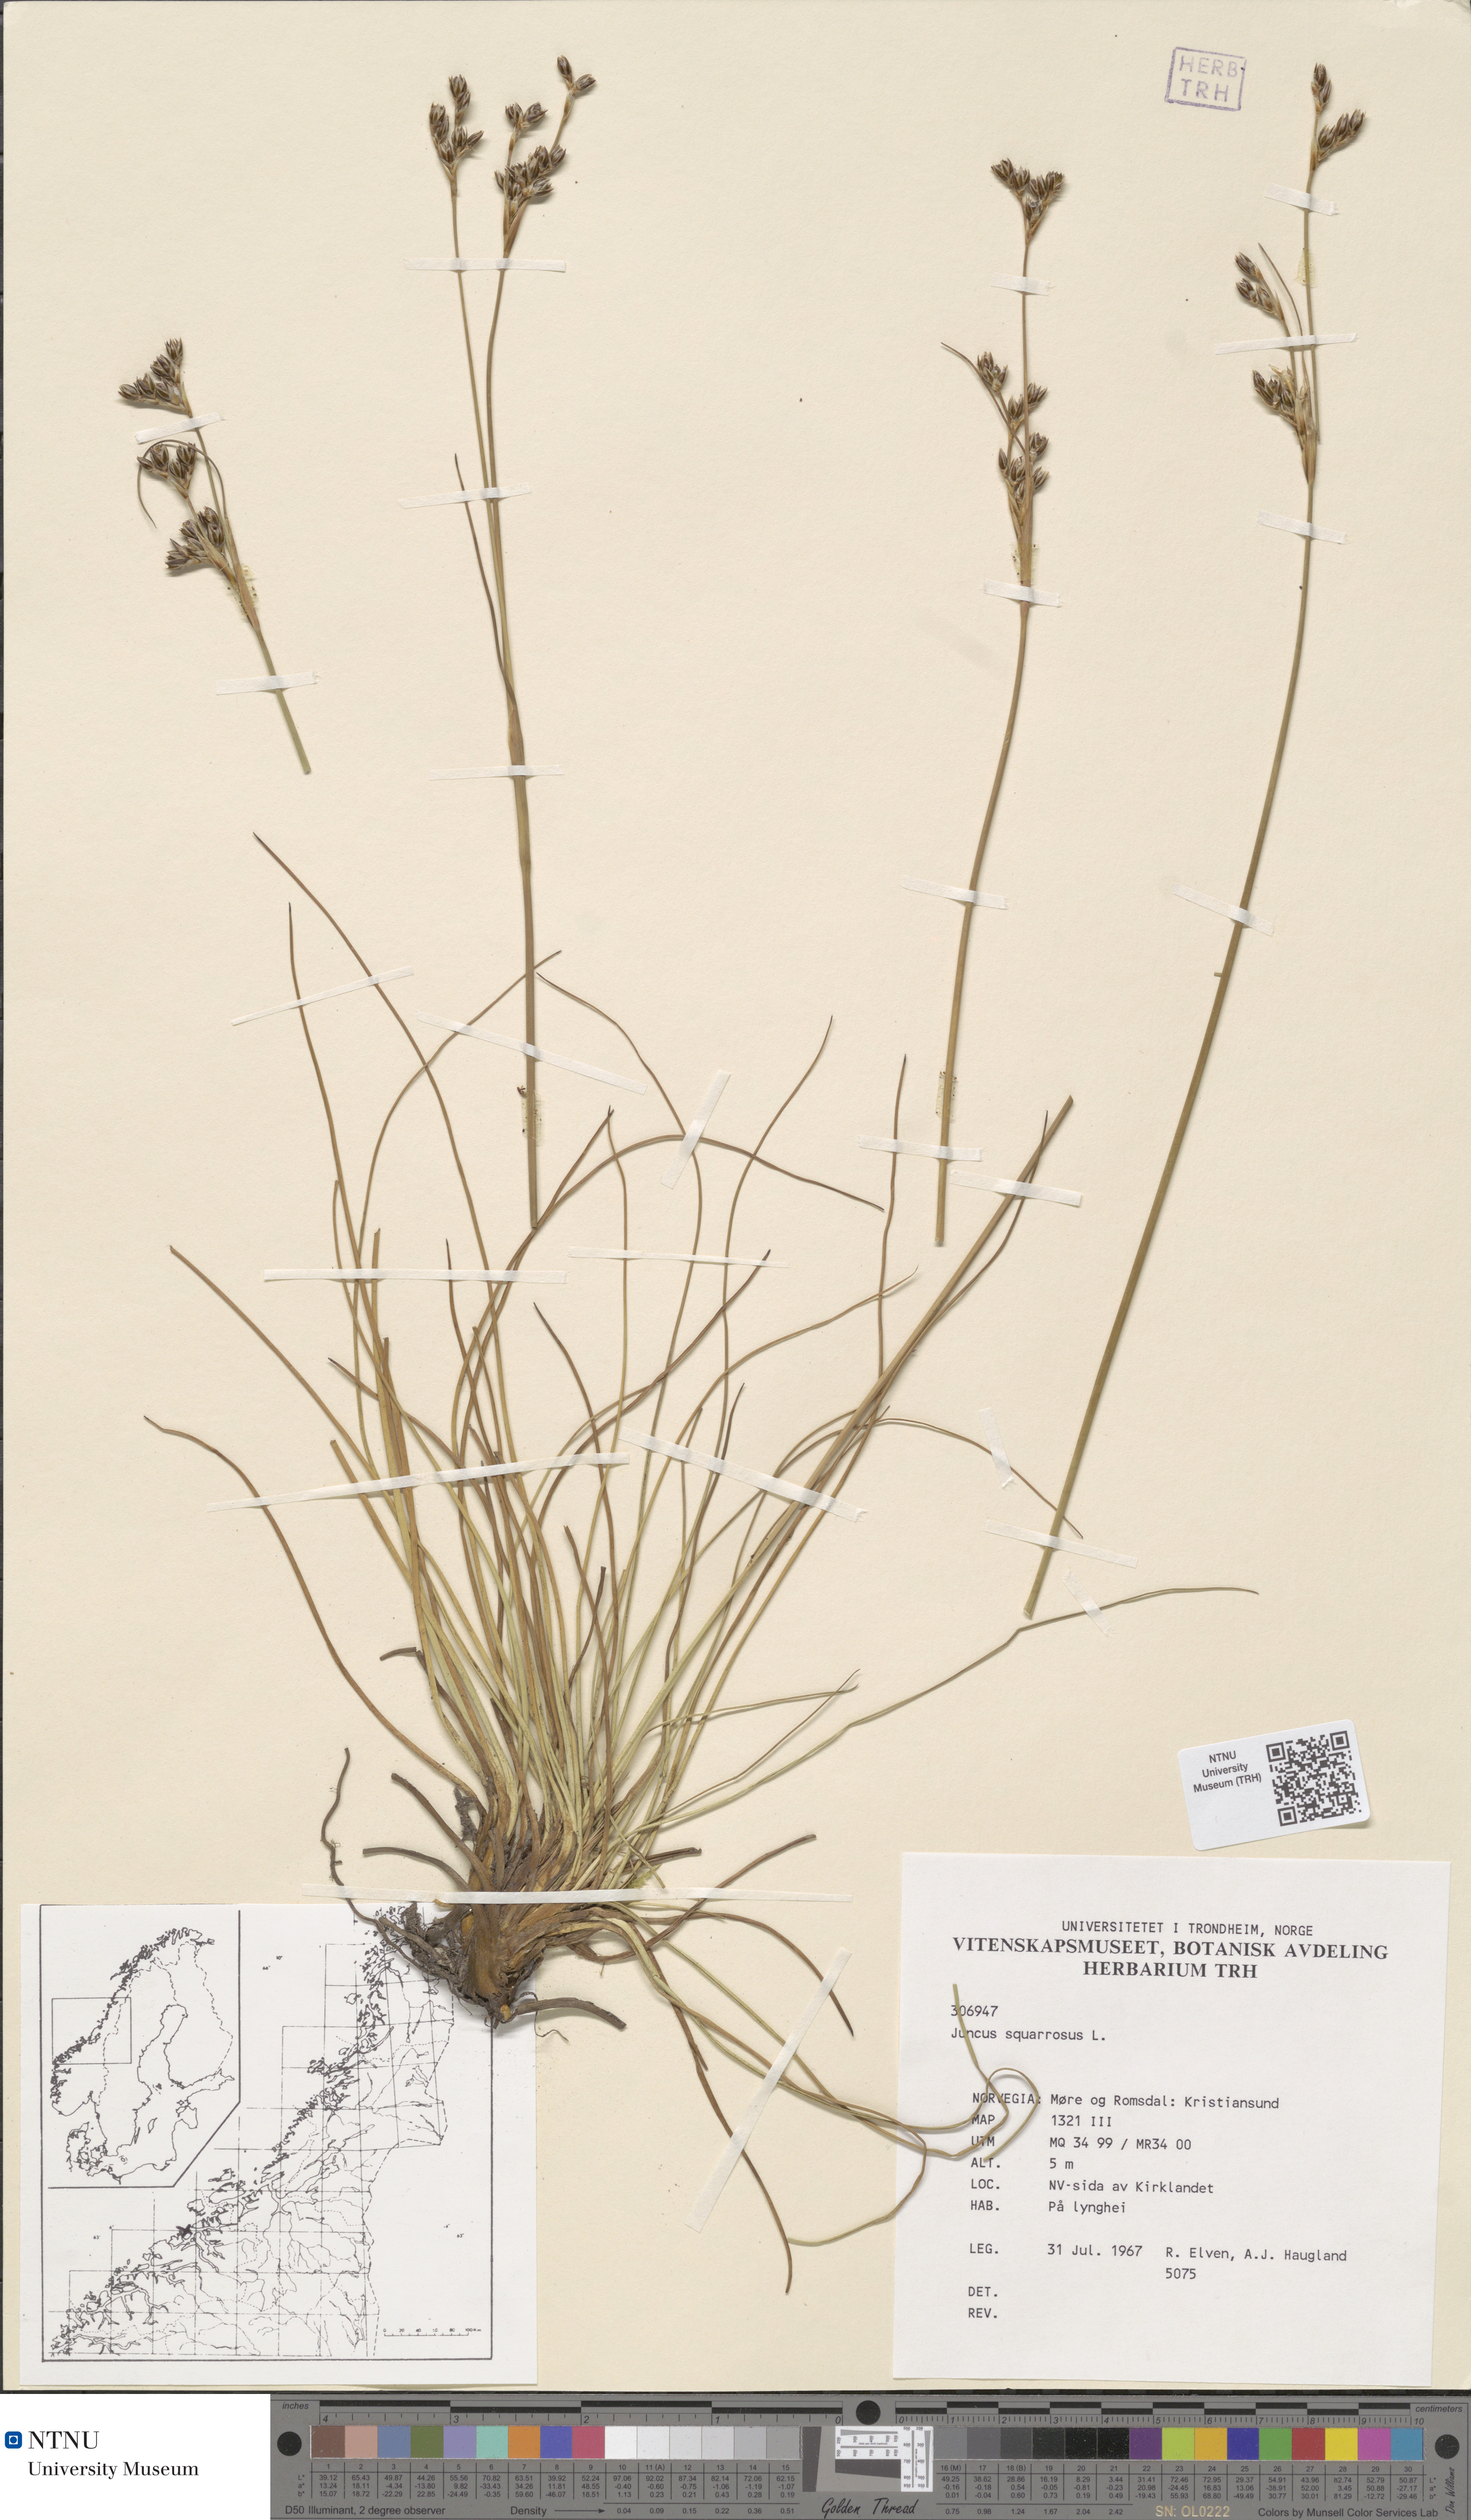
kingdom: Plantae
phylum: Tracheophyta
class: Magnoliopsida
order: Saxifragales
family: Crassulaceae
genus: Sedum
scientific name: Sedum anglicum
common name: English stonecrop
